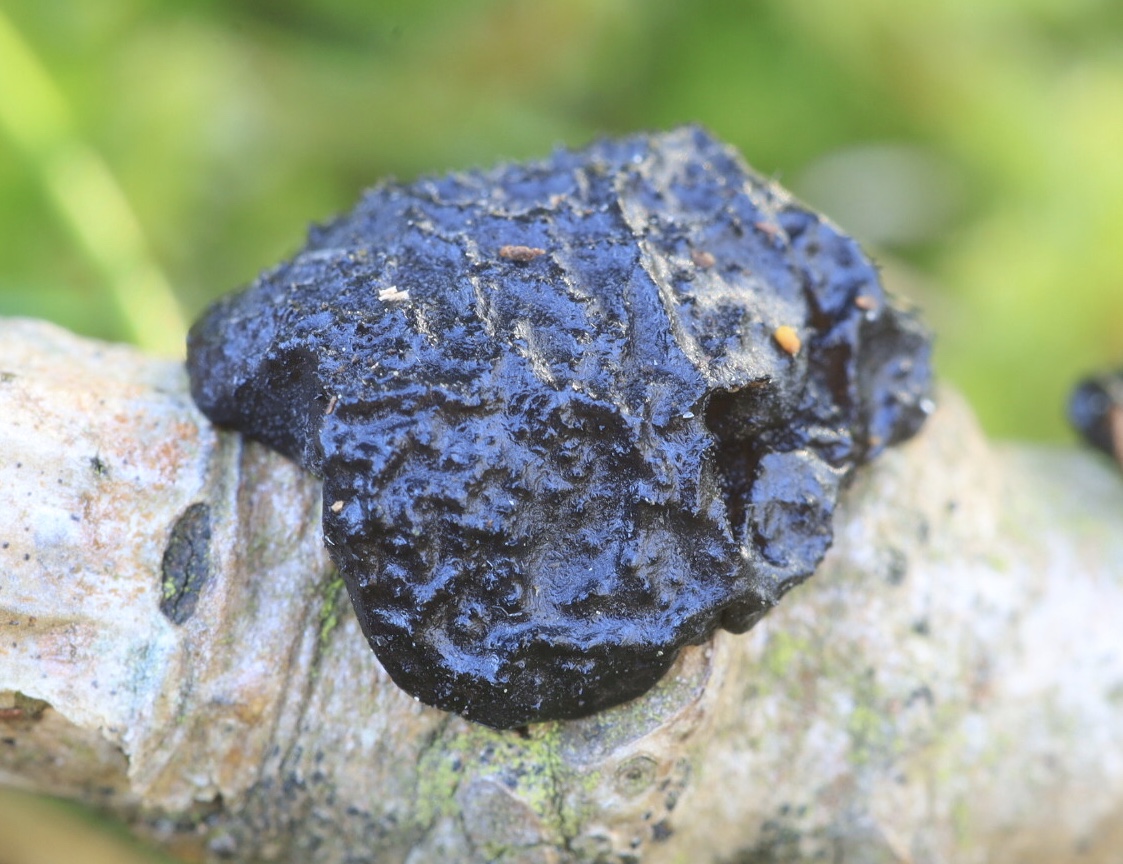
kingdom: Fungi
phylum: Basidiomycota
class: Agaricomycetes
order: Auriculariales
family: Auriculariaceae
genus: Exidia
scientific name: Exidia glandulosa
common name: ege-bævretop
